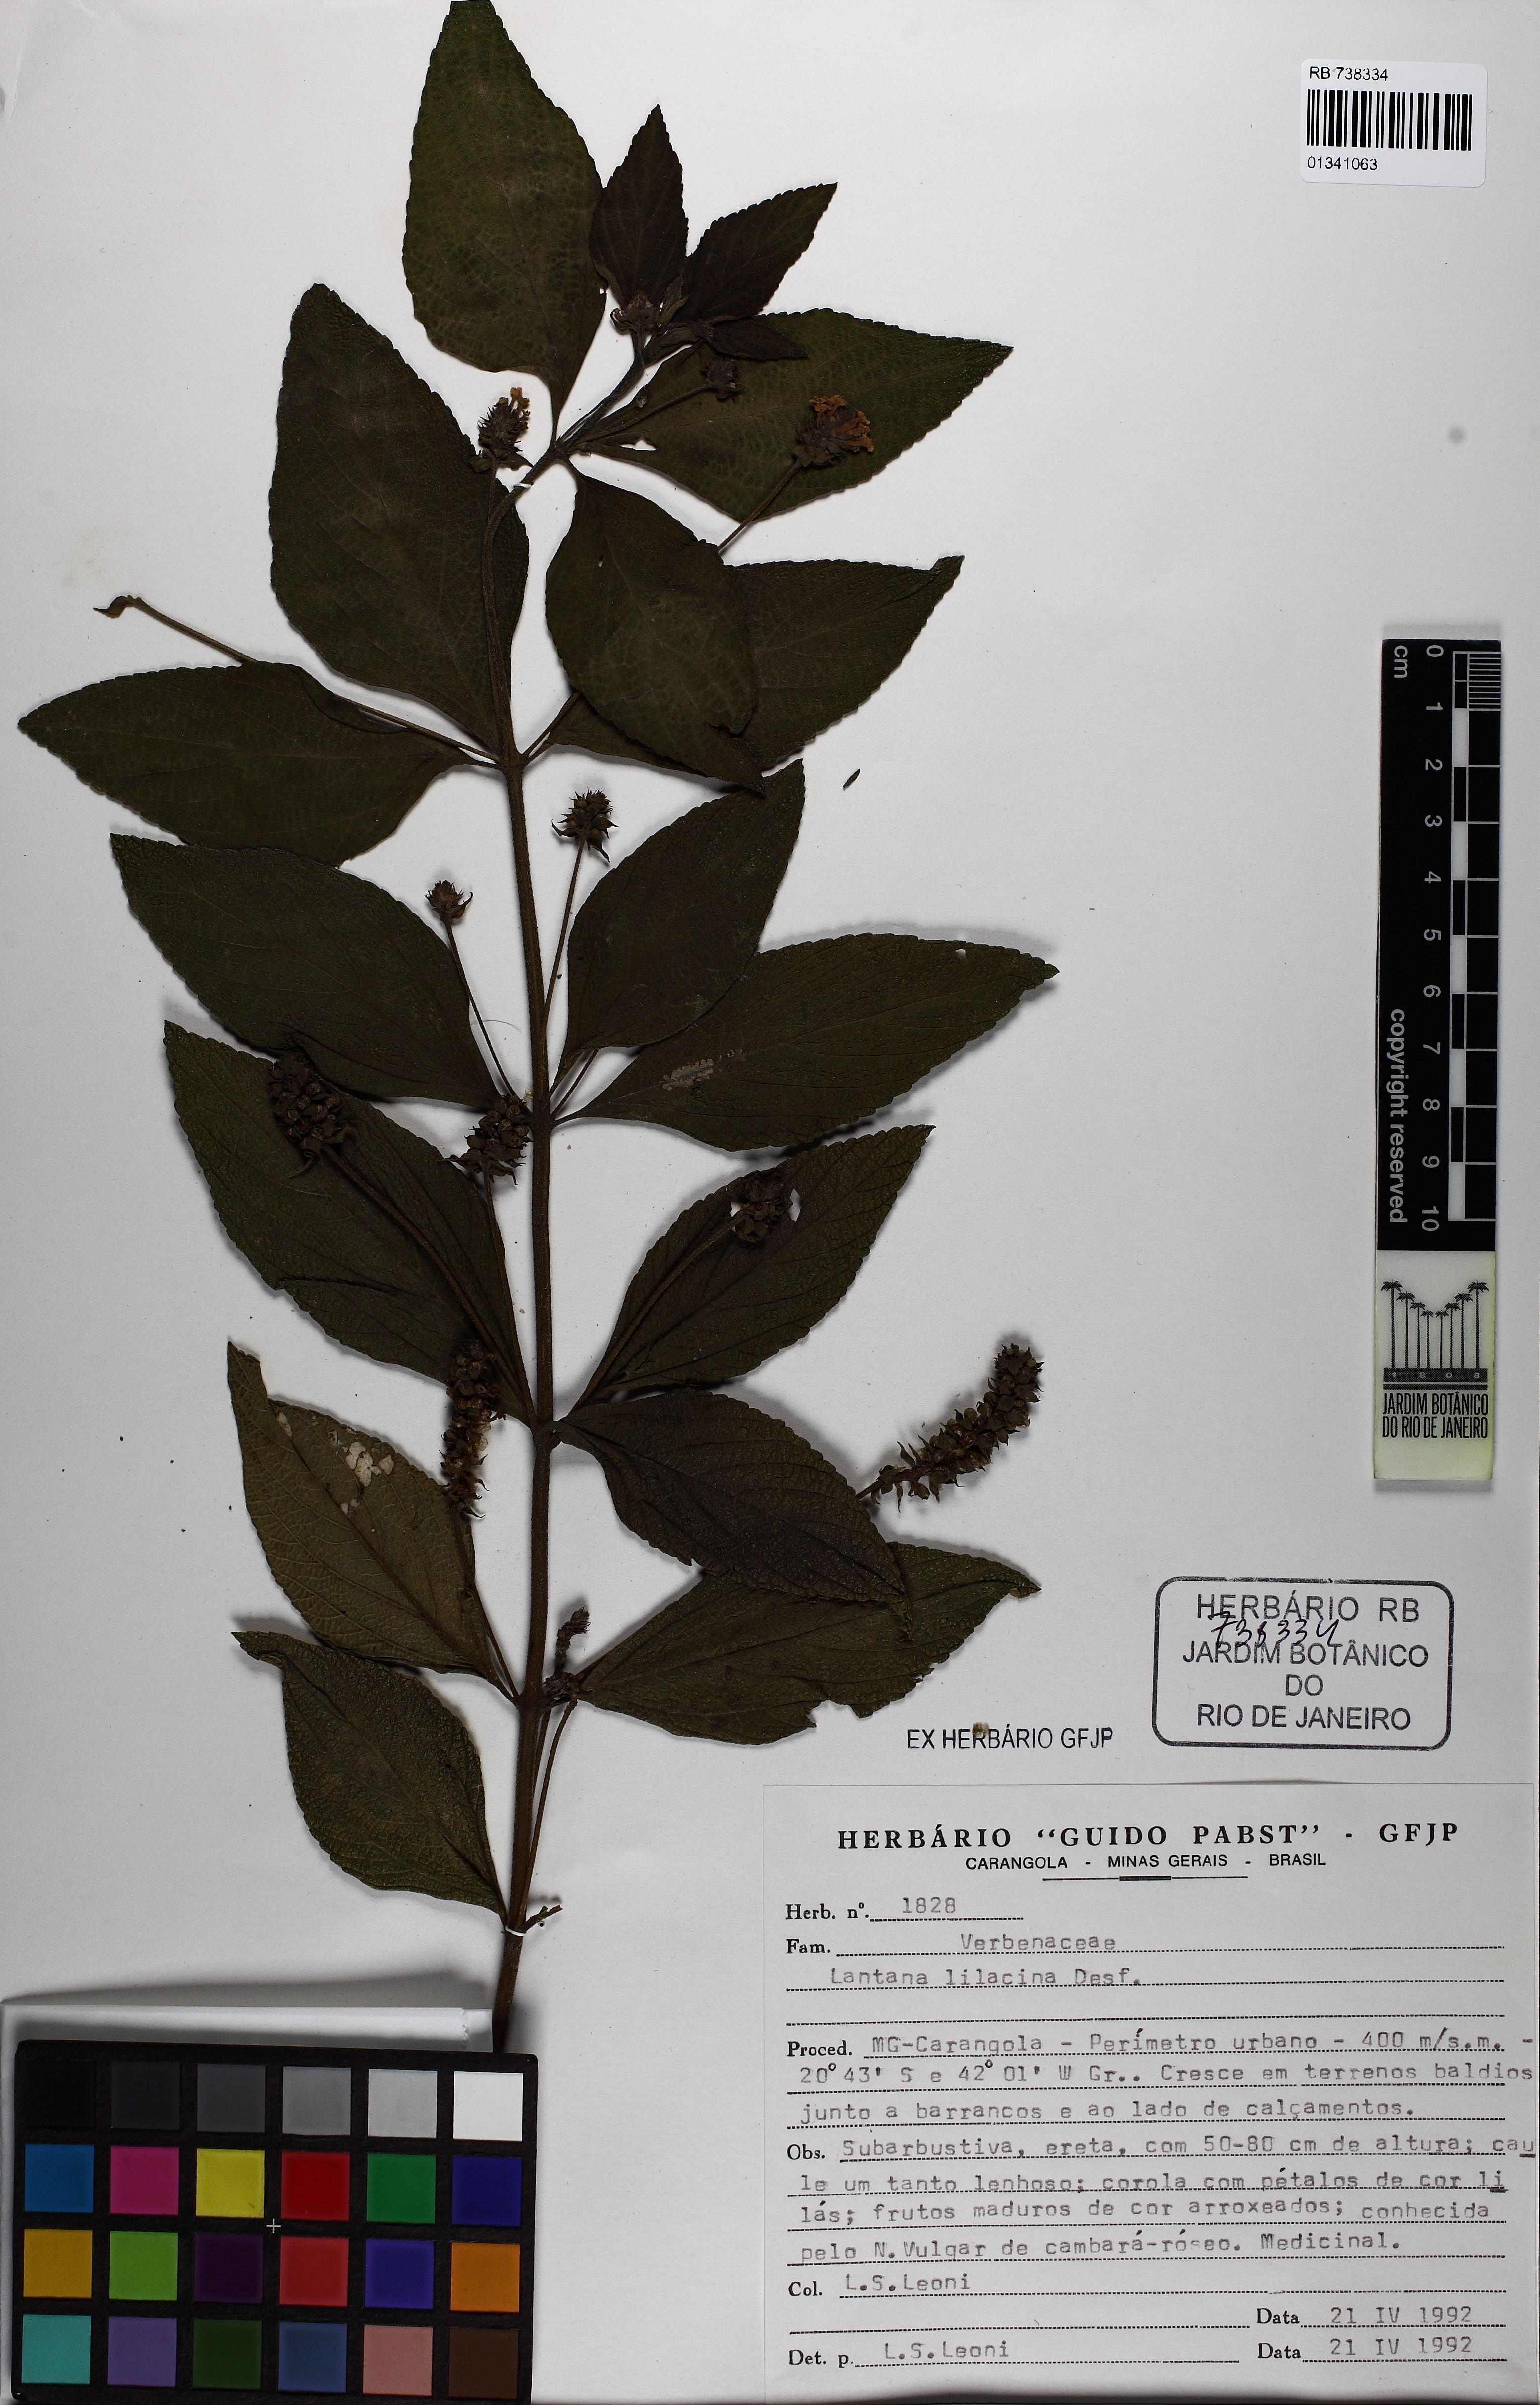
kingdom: Plantae
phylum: Tracheophyta
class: Magnoliopsida
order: Lamiales
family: Verbenaceae
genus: Lantana
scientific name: Lantana fucata
